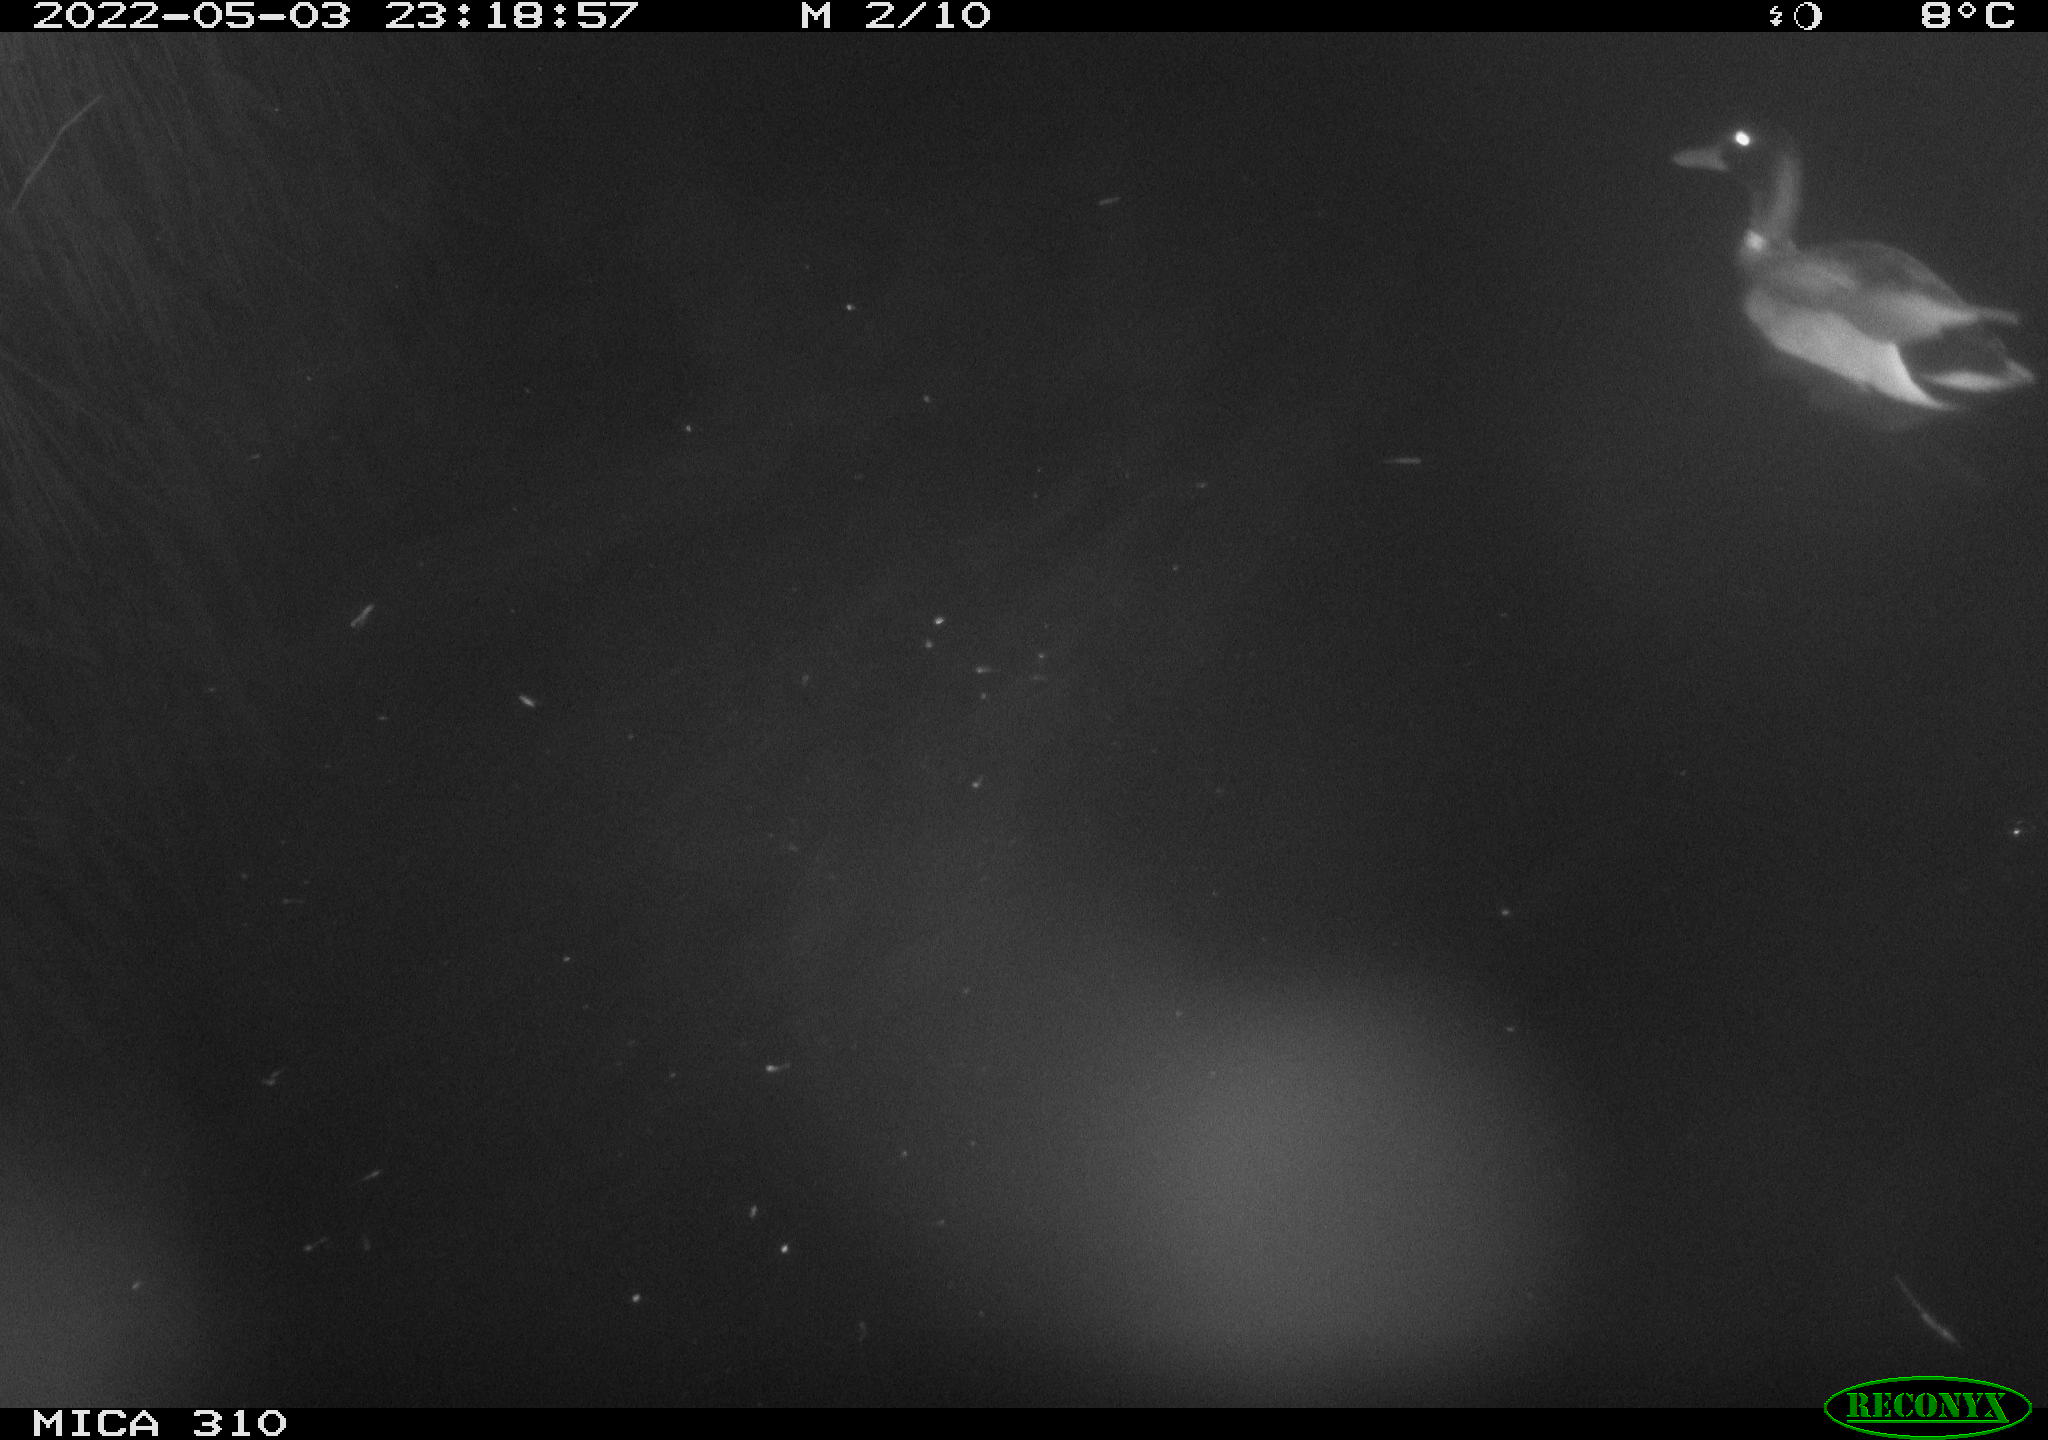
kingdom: Animalia
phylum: Chordata
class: Aves
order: Anseriformes
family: Anatidae
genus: Anas
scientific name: Anas platyrhynchos
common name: Mallard
